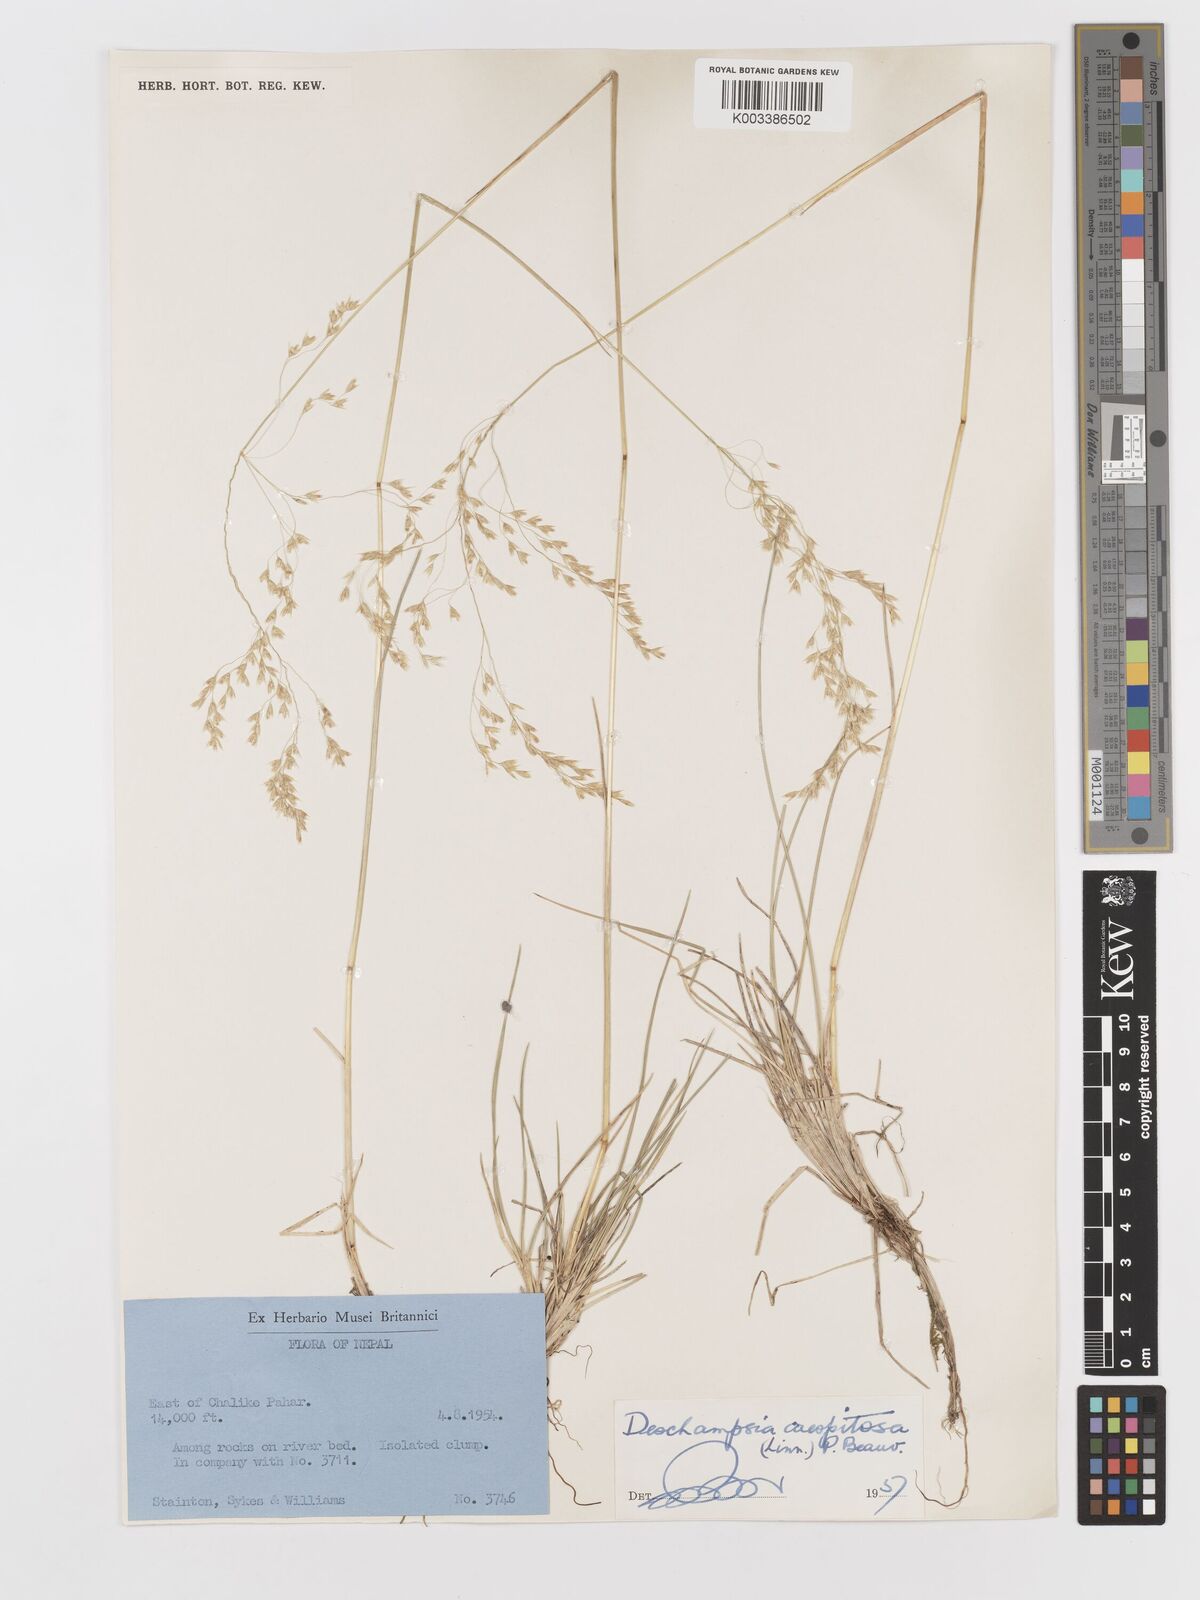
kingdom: Plantae
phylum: Tracheophyta
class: Liliopsida
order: Poales
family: Poaceae
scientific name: Poaceae
